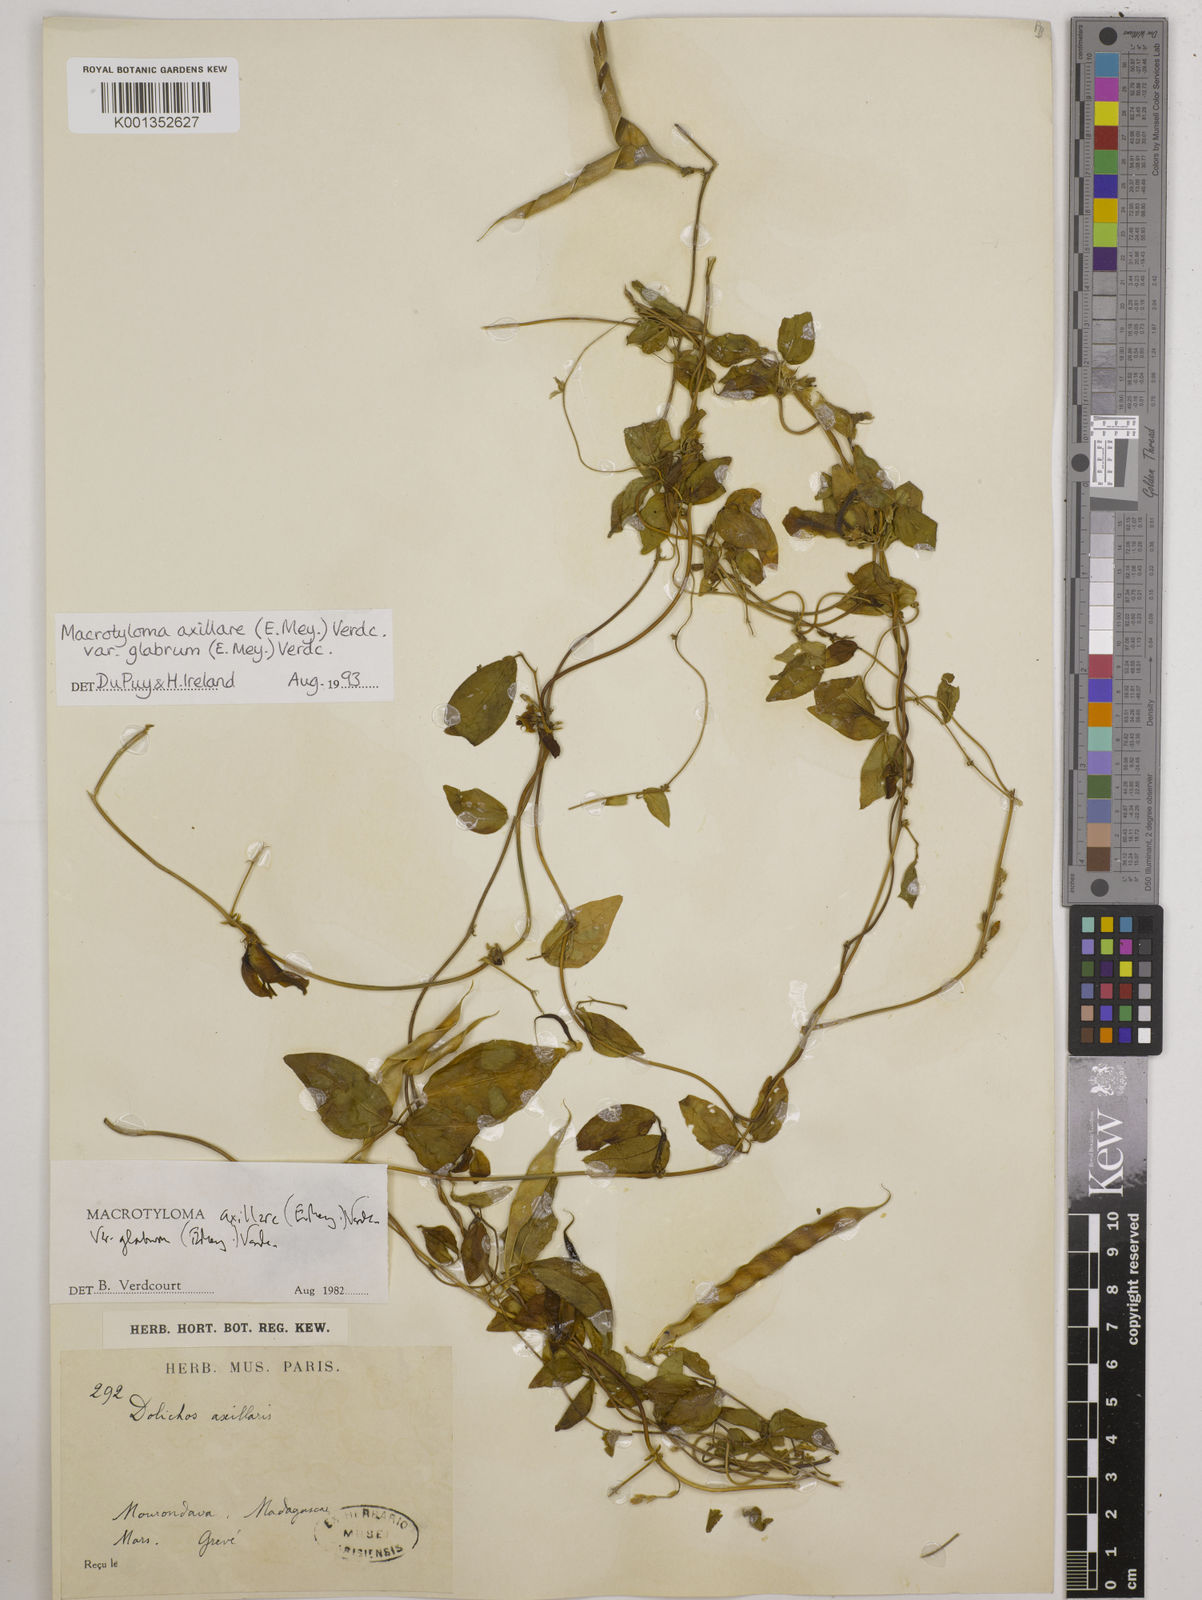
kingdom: Plantae
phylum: Tracheophyta
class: Magnoliopsida
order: Fabales
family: Fabaceae
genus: Macrotyloma
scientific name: Macrotyloma
